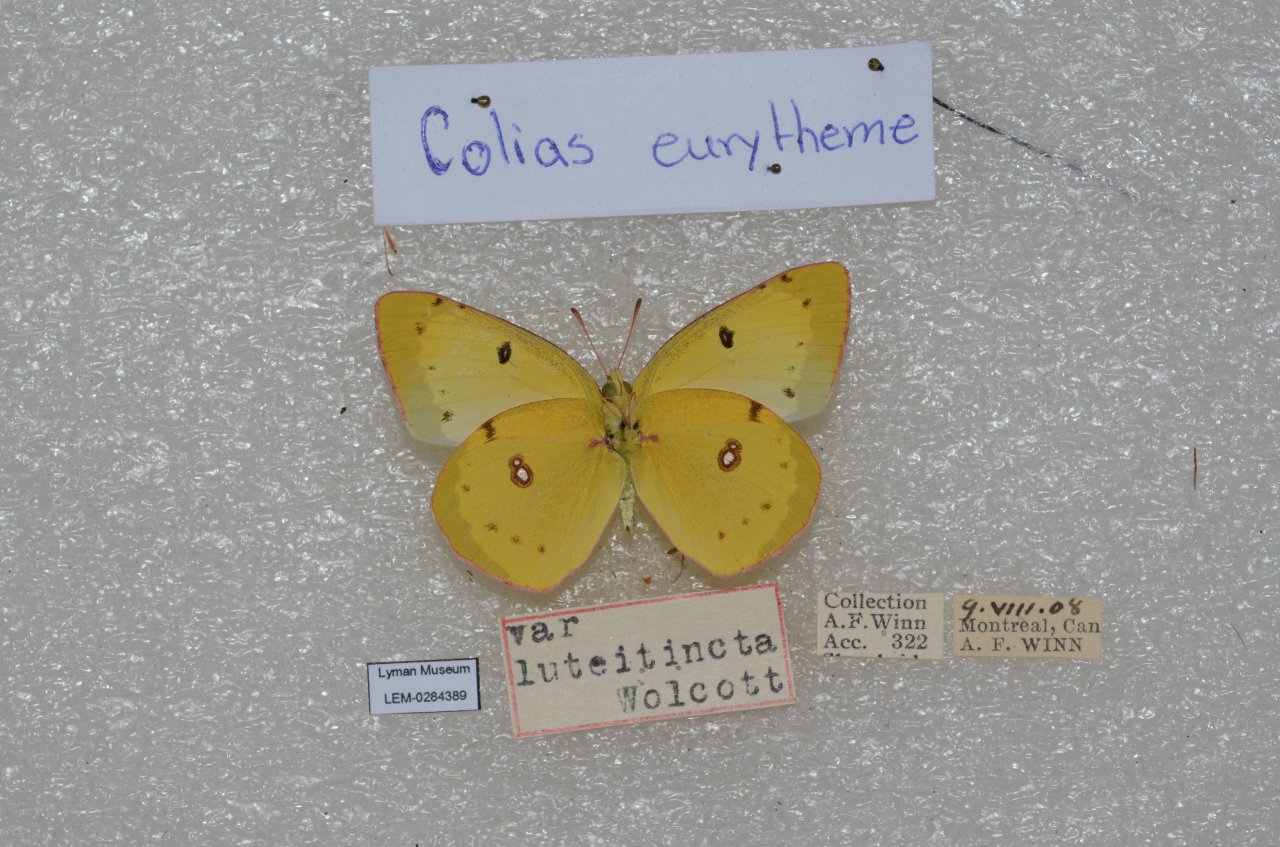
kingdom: Animalia
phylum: Arthropoda
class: Insecta
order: Lepidoptera
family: Pieridae
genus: Colias
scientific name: Colias eurytheme
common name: Orange Sulphur
